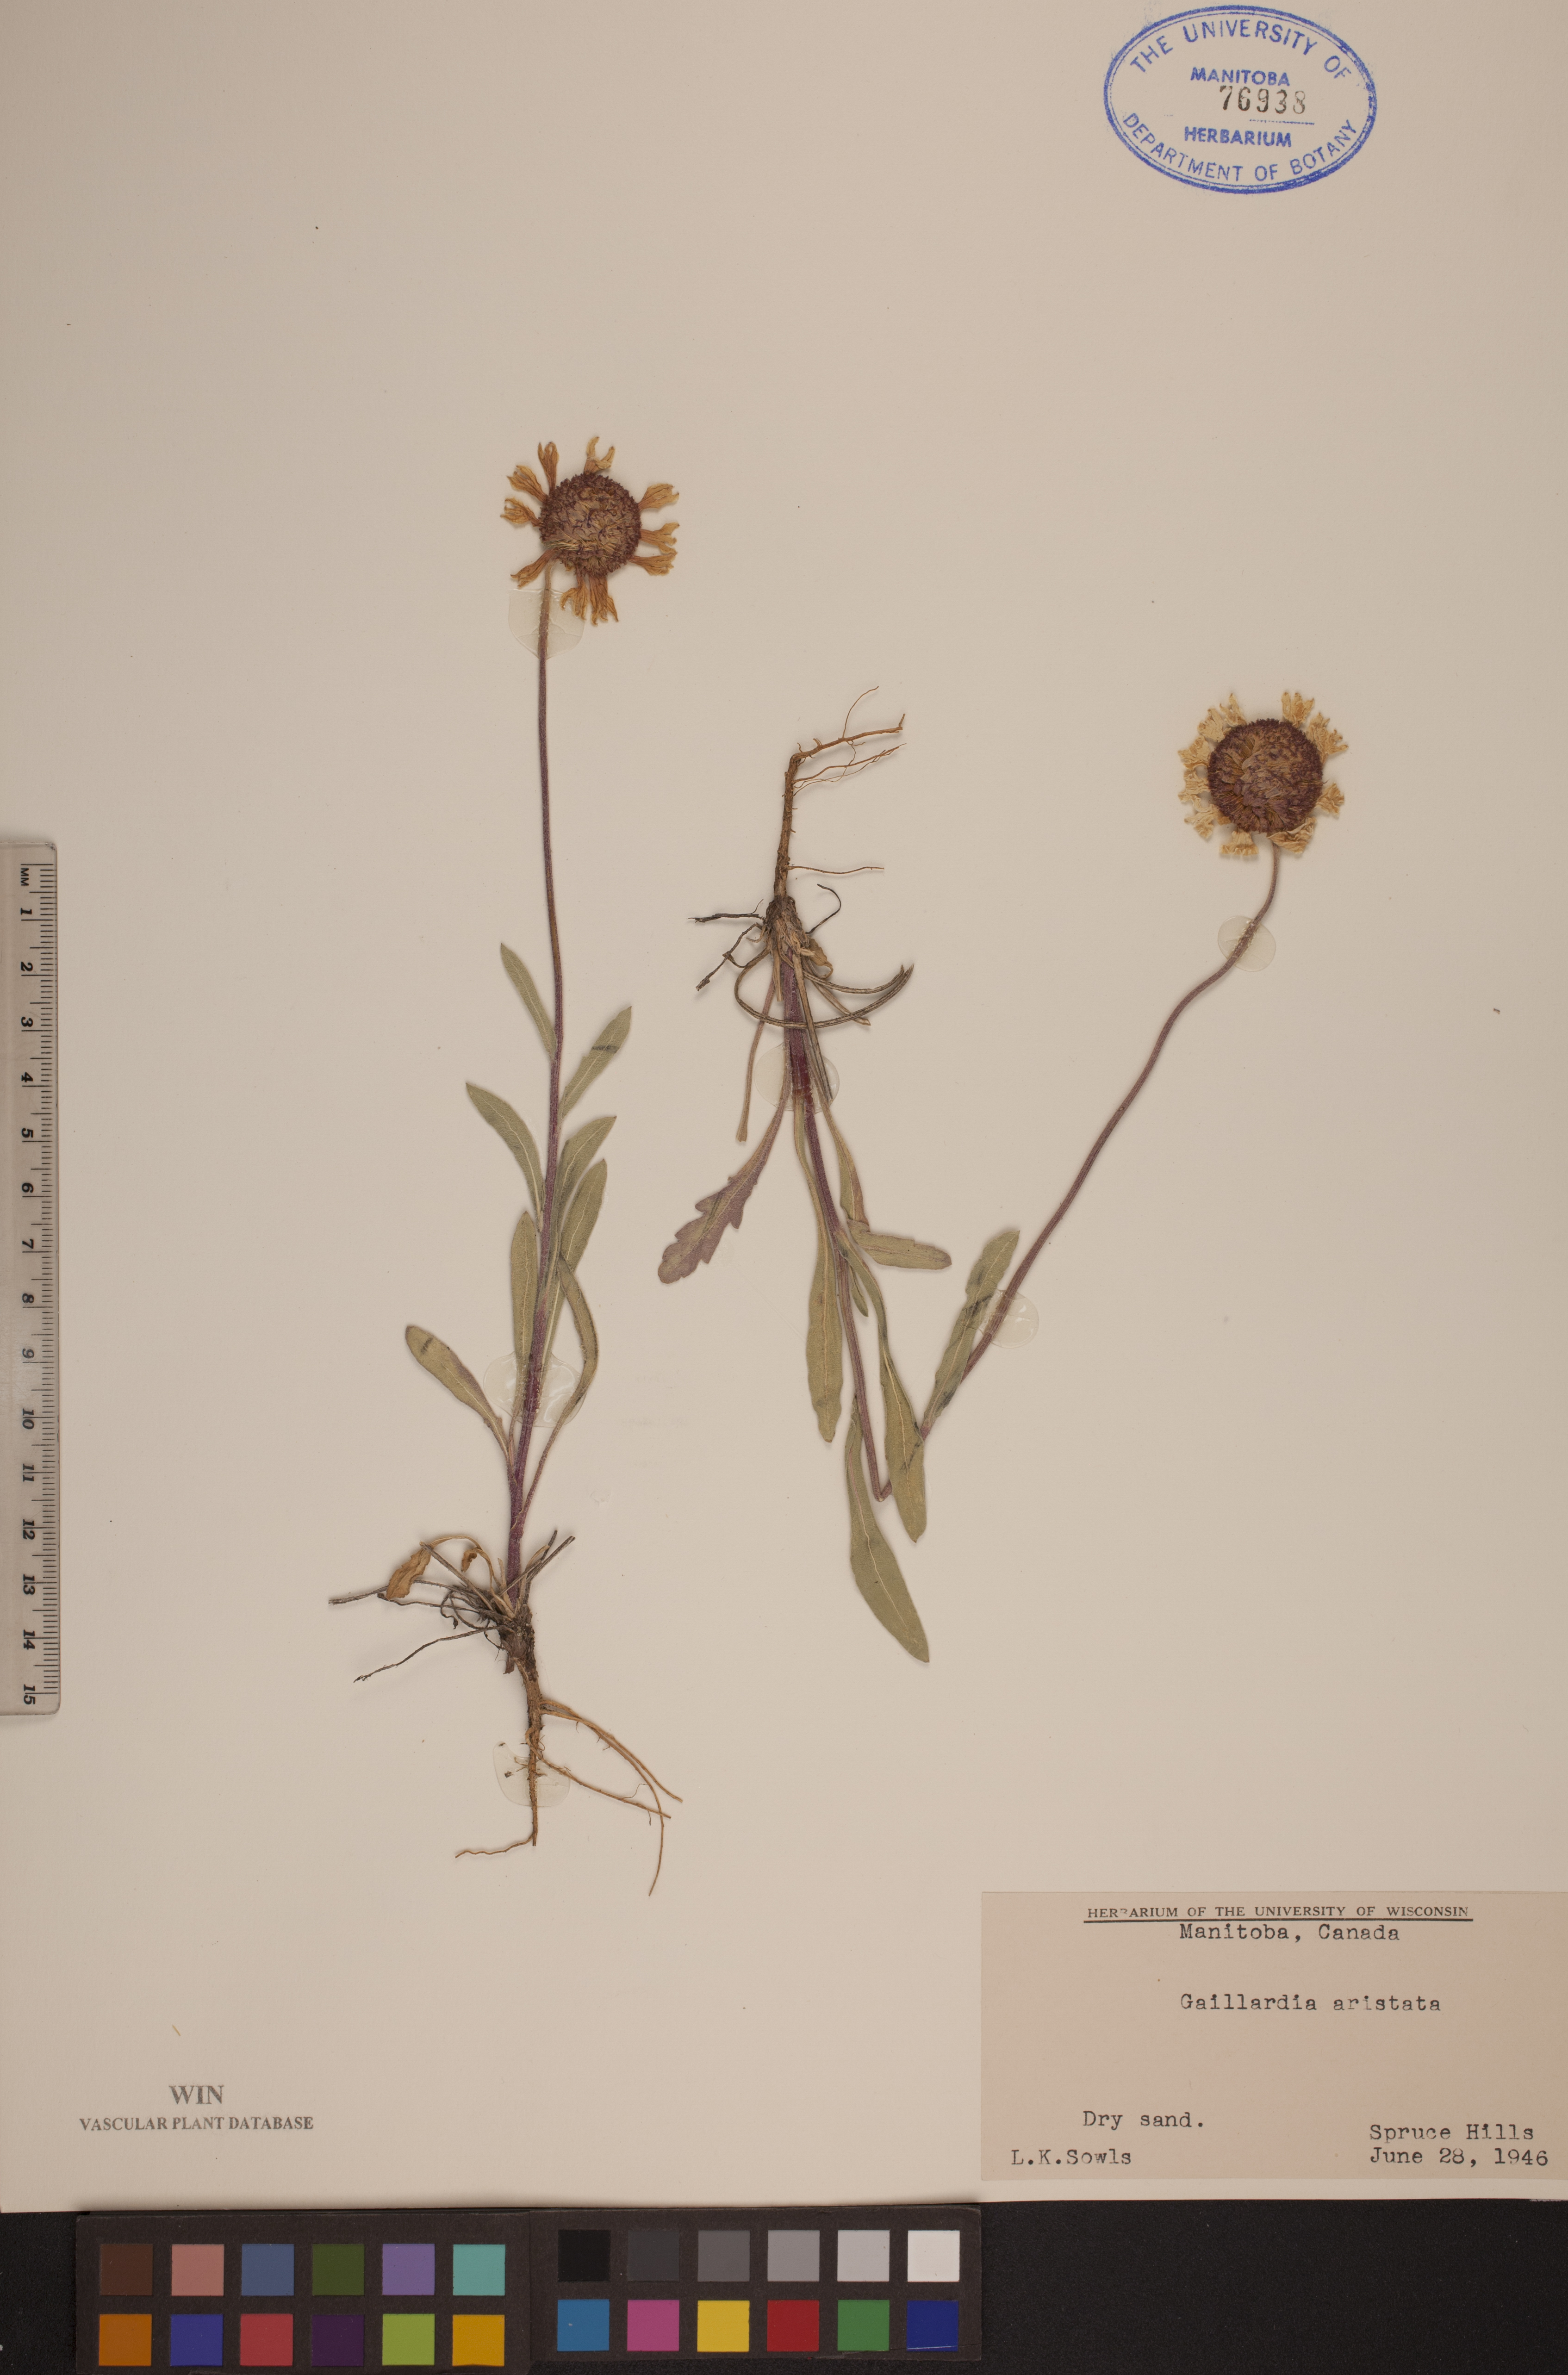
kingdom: Plantae
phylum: Tracheophyta
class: Magnoliopsida
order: Asterales
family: Asteraceae
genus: Gaillardia
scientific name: Gaillardia aristata
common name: Blanket-flower
